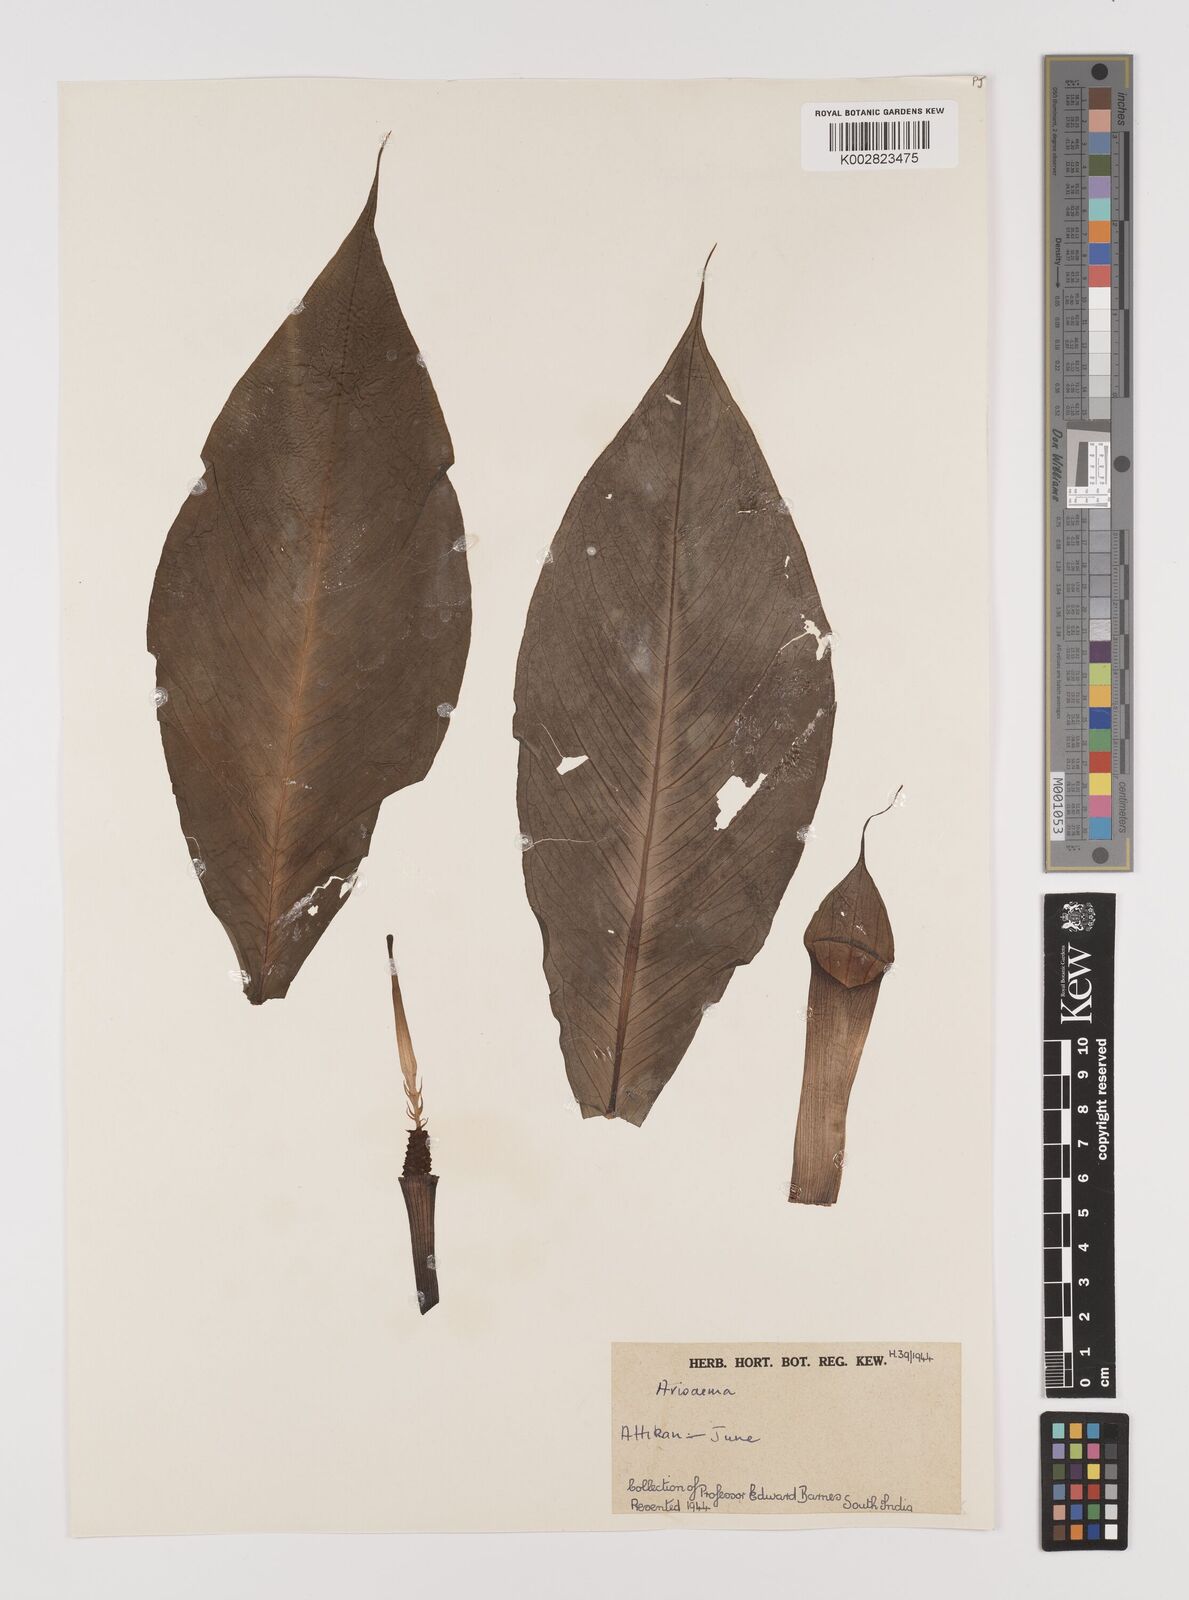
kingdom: Plantae
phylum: Tracheophyta
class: Liliopsida
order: Alismatales
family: Araceae
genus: Arisaema
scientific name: Arisaema
